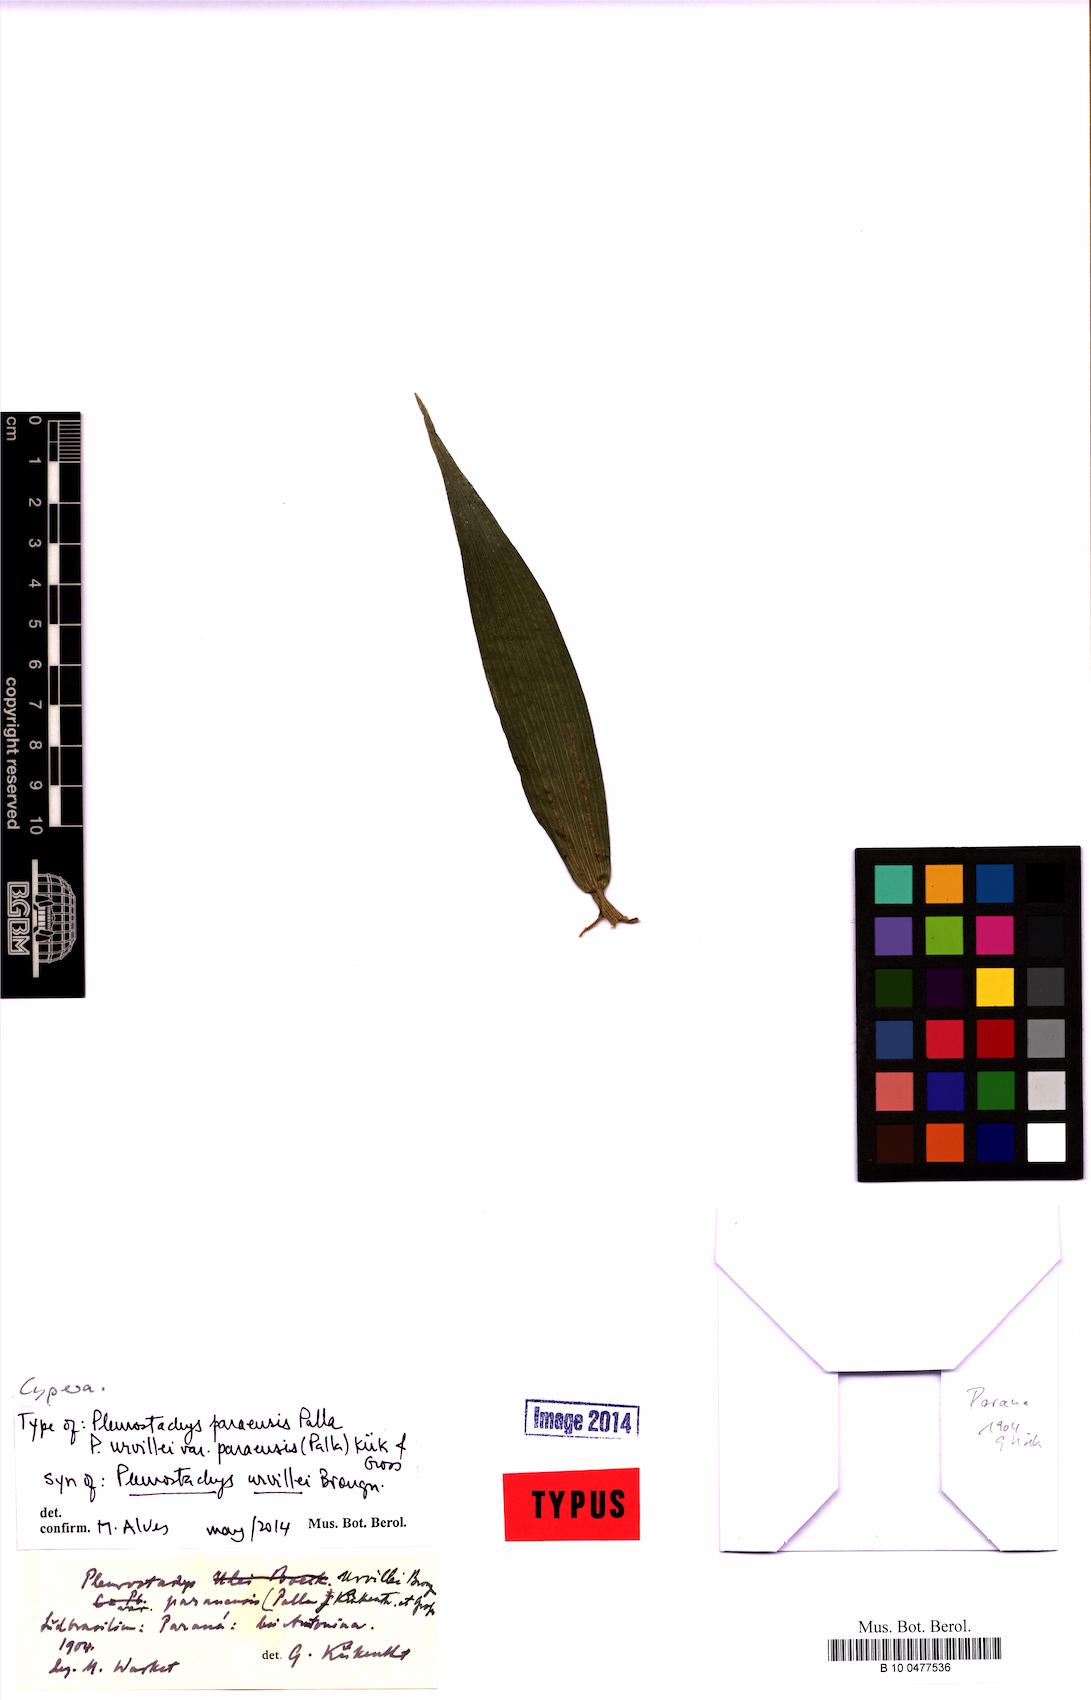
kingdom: Plantae
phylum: Tracheophyta
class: Liliopsida
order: Poales
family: Cyperaceae
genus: Rhynchospora
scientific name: Rhynchospora Pleurostachys ulei
